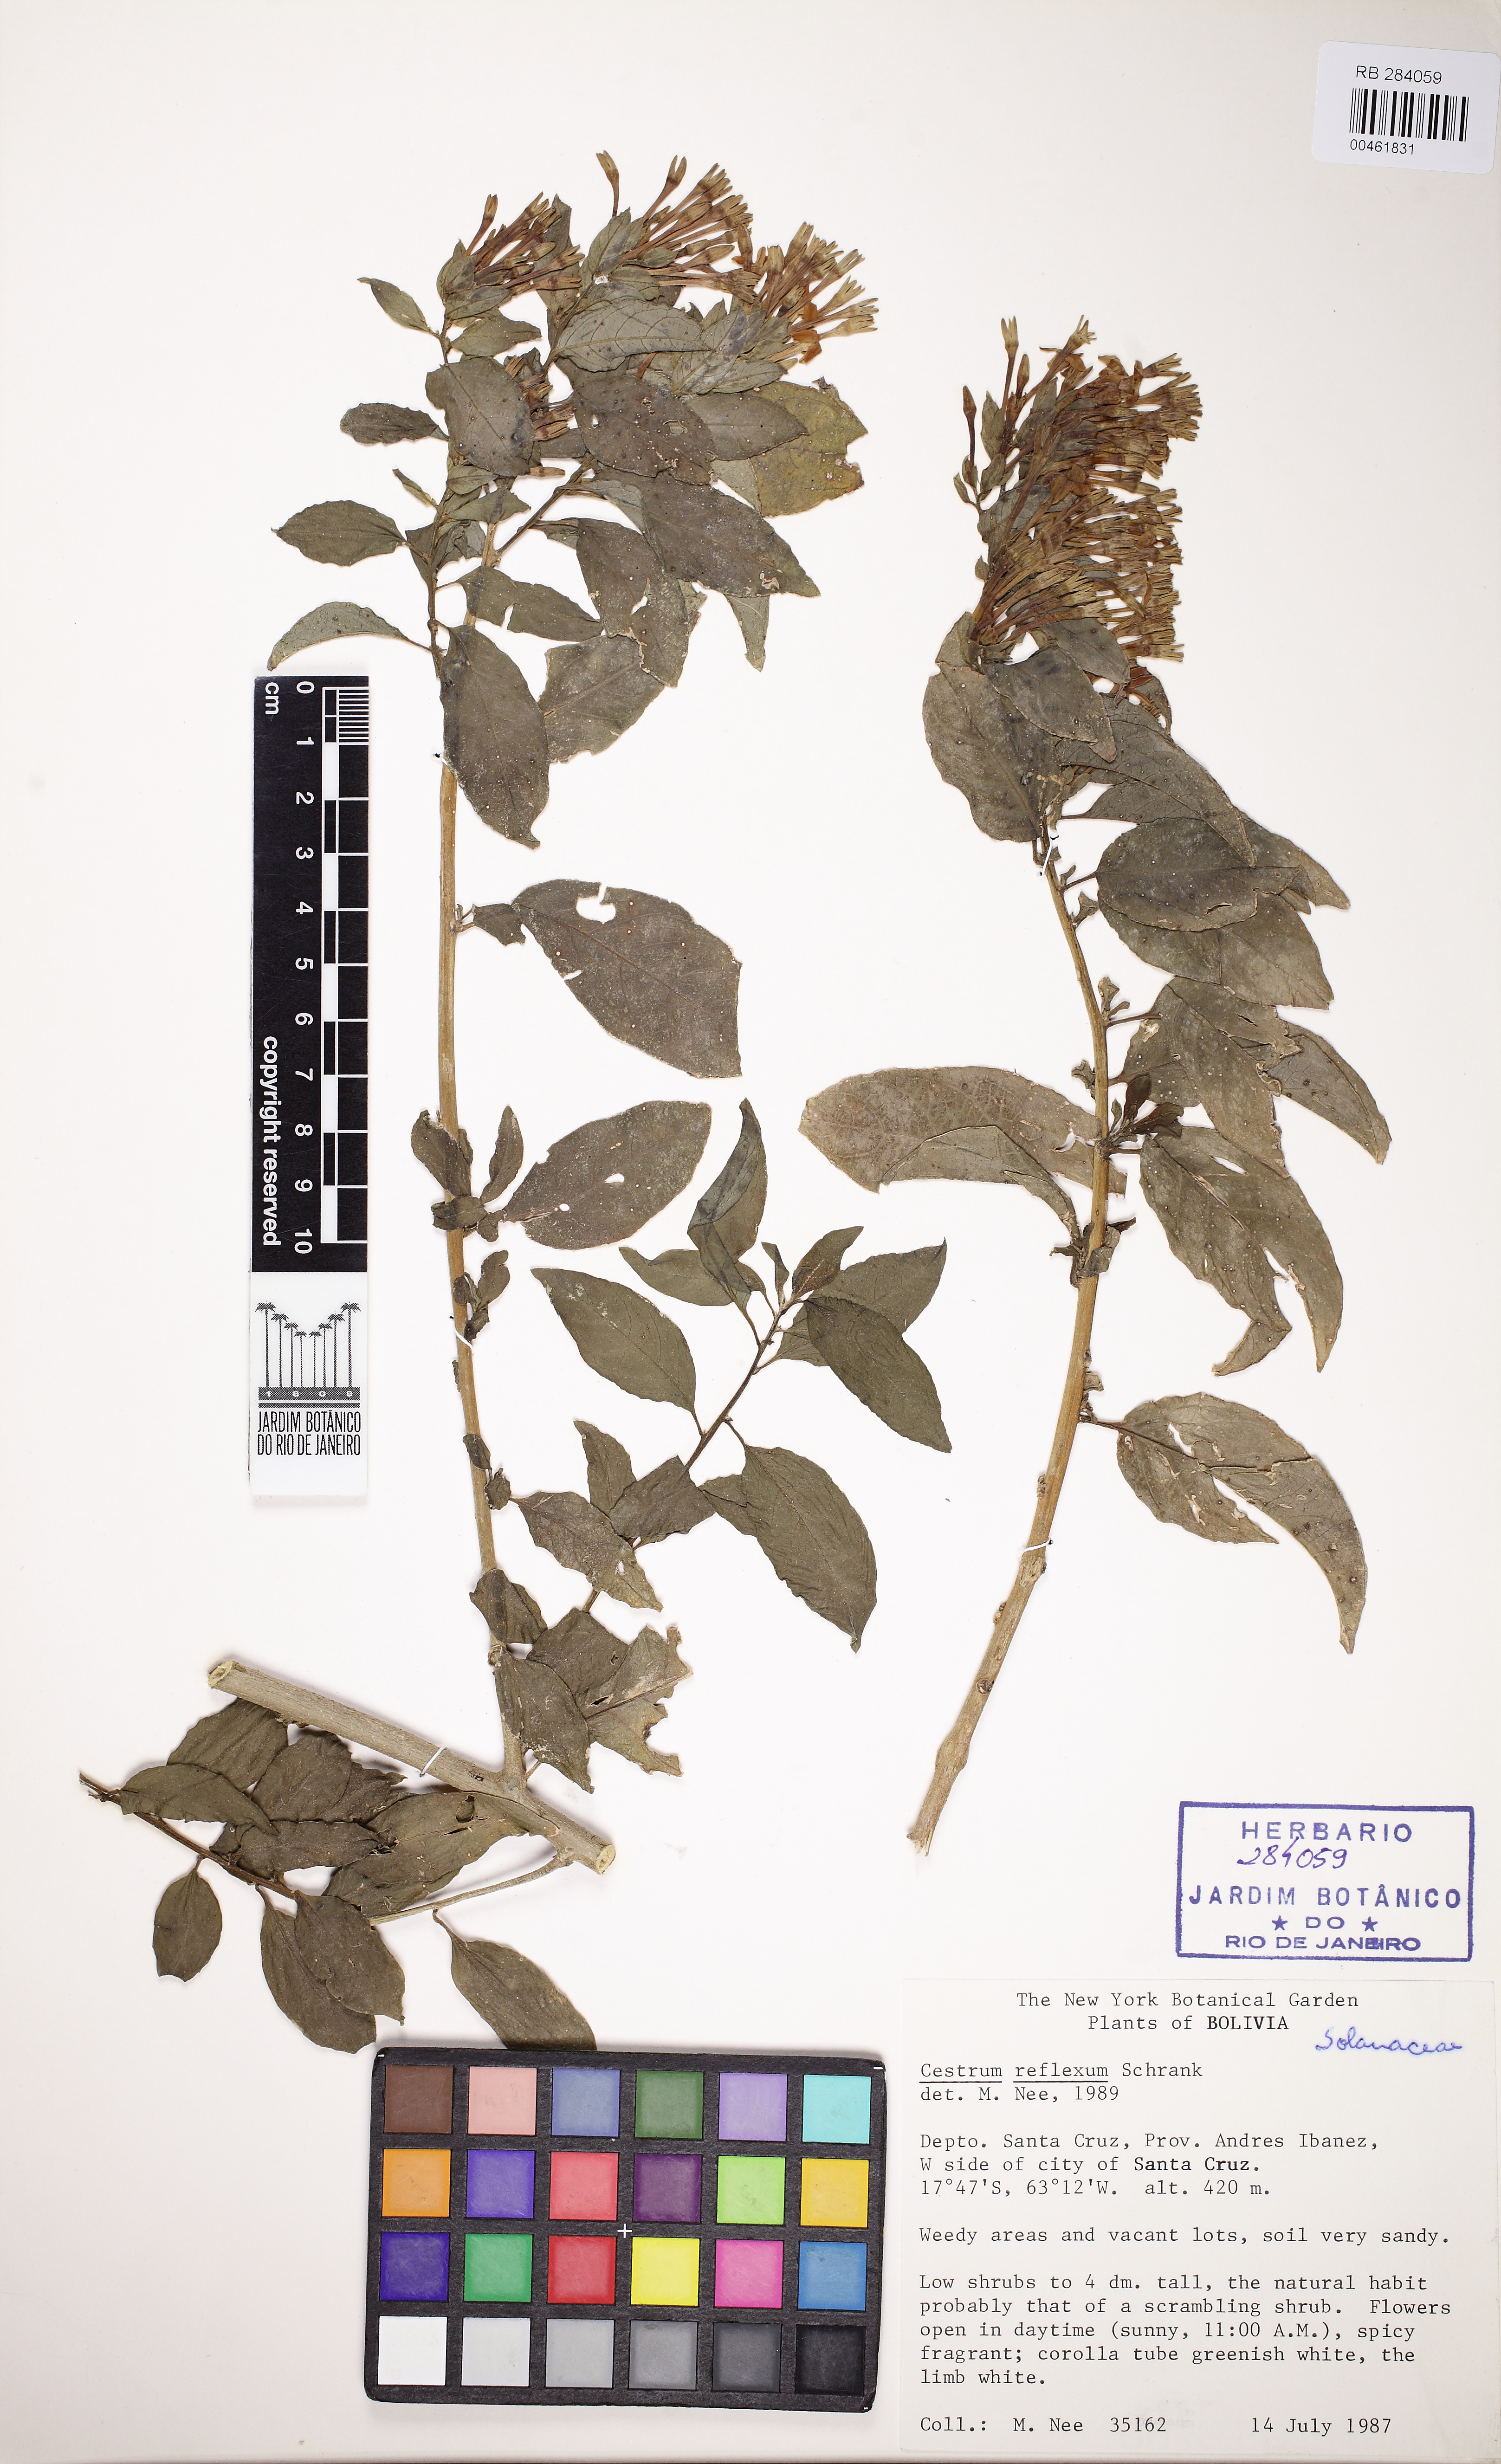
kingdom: Plantae
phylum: Tracheophyta
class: Magnoliopsida
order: Solanales
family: Solanaceae
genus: Cestrum
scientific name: Cestrum reflexum
